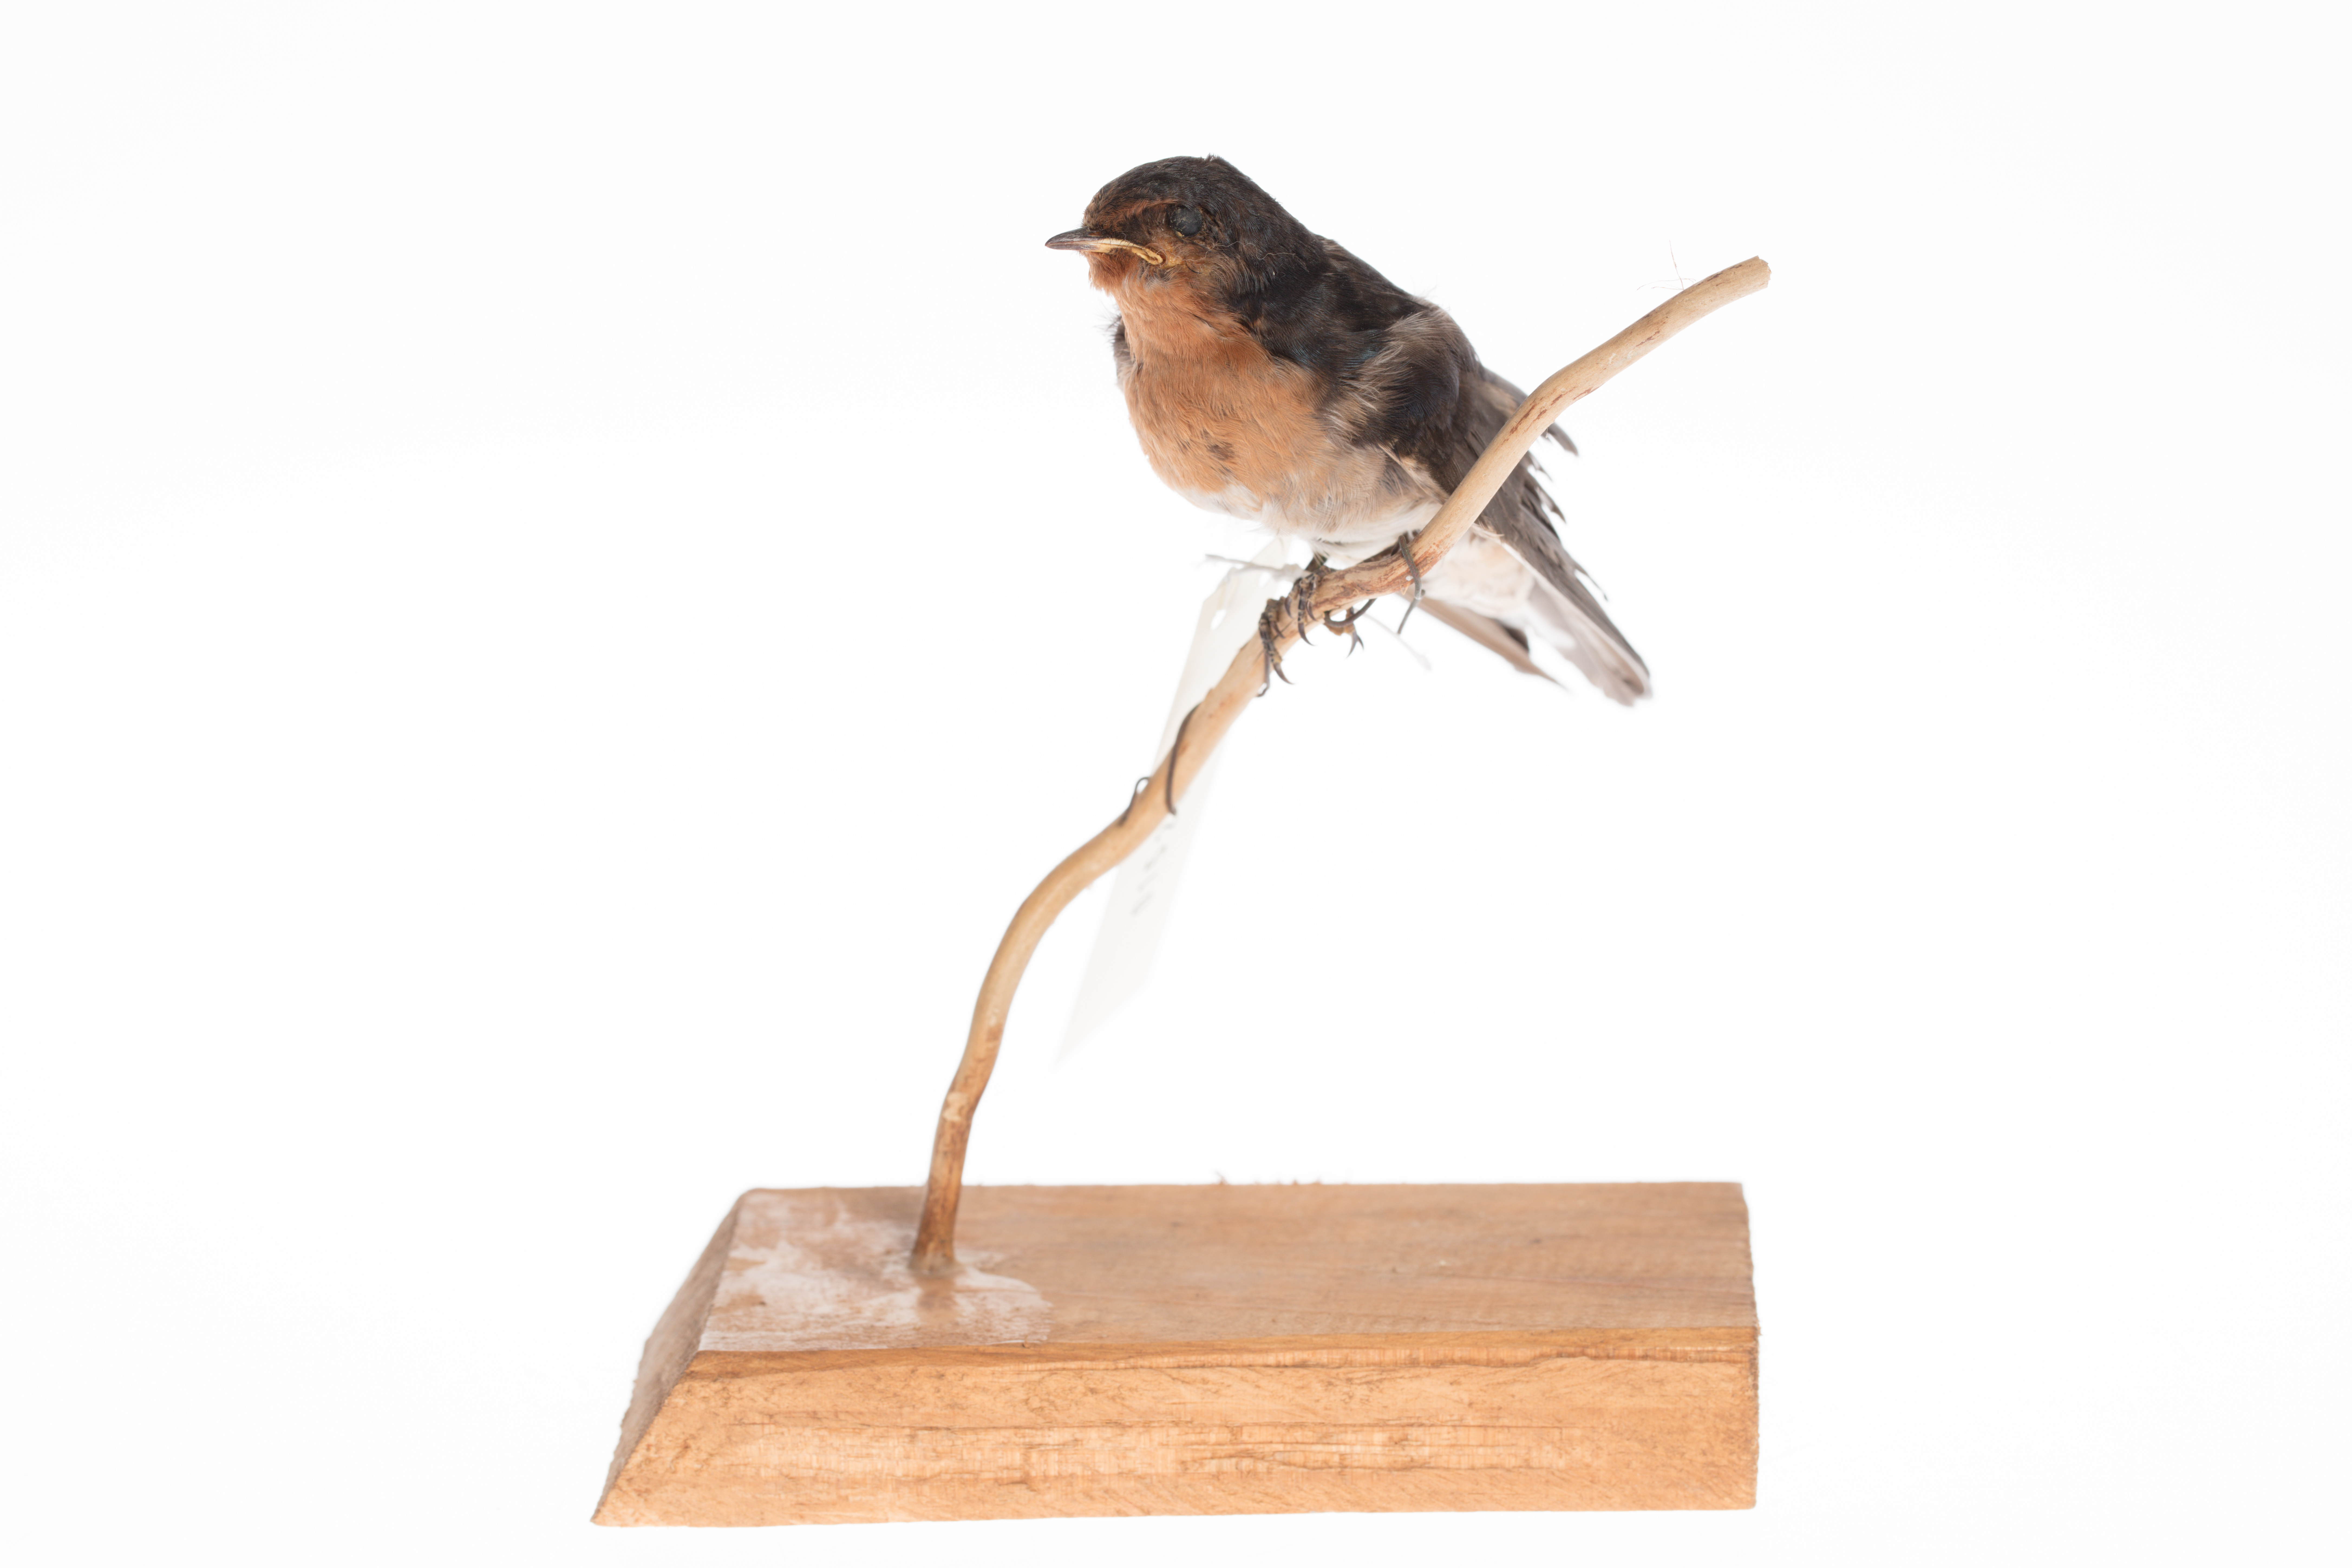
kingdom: Animalia
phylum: Chordata
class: Aves
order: Passeriformes
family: Hirundinidae
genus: Hirundo
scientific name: Hirundo neoxena
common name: Welcome swallow
